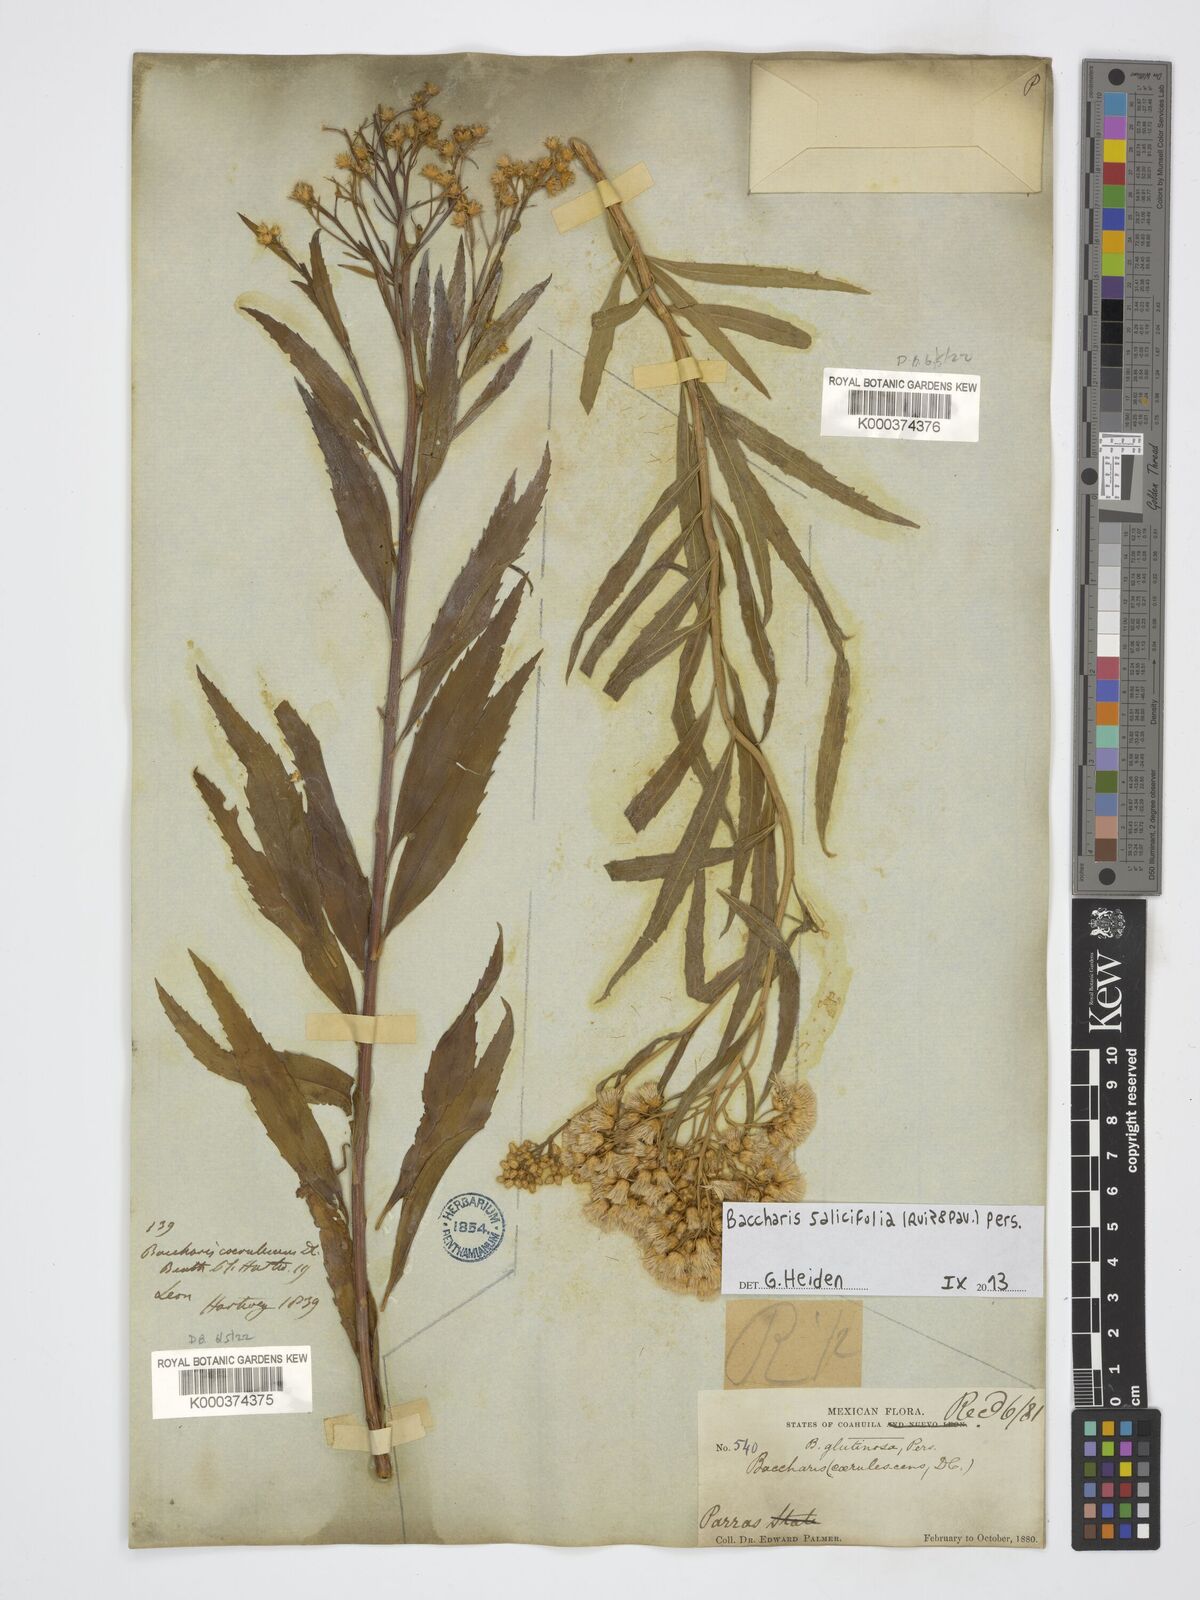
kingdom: Plantae
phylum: Tracheophyta
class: Magnoliopsida
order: Asterales
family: Asteraceae
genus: Baccharis
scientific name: Baccharis salicifolia
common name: Sticky baccharis
